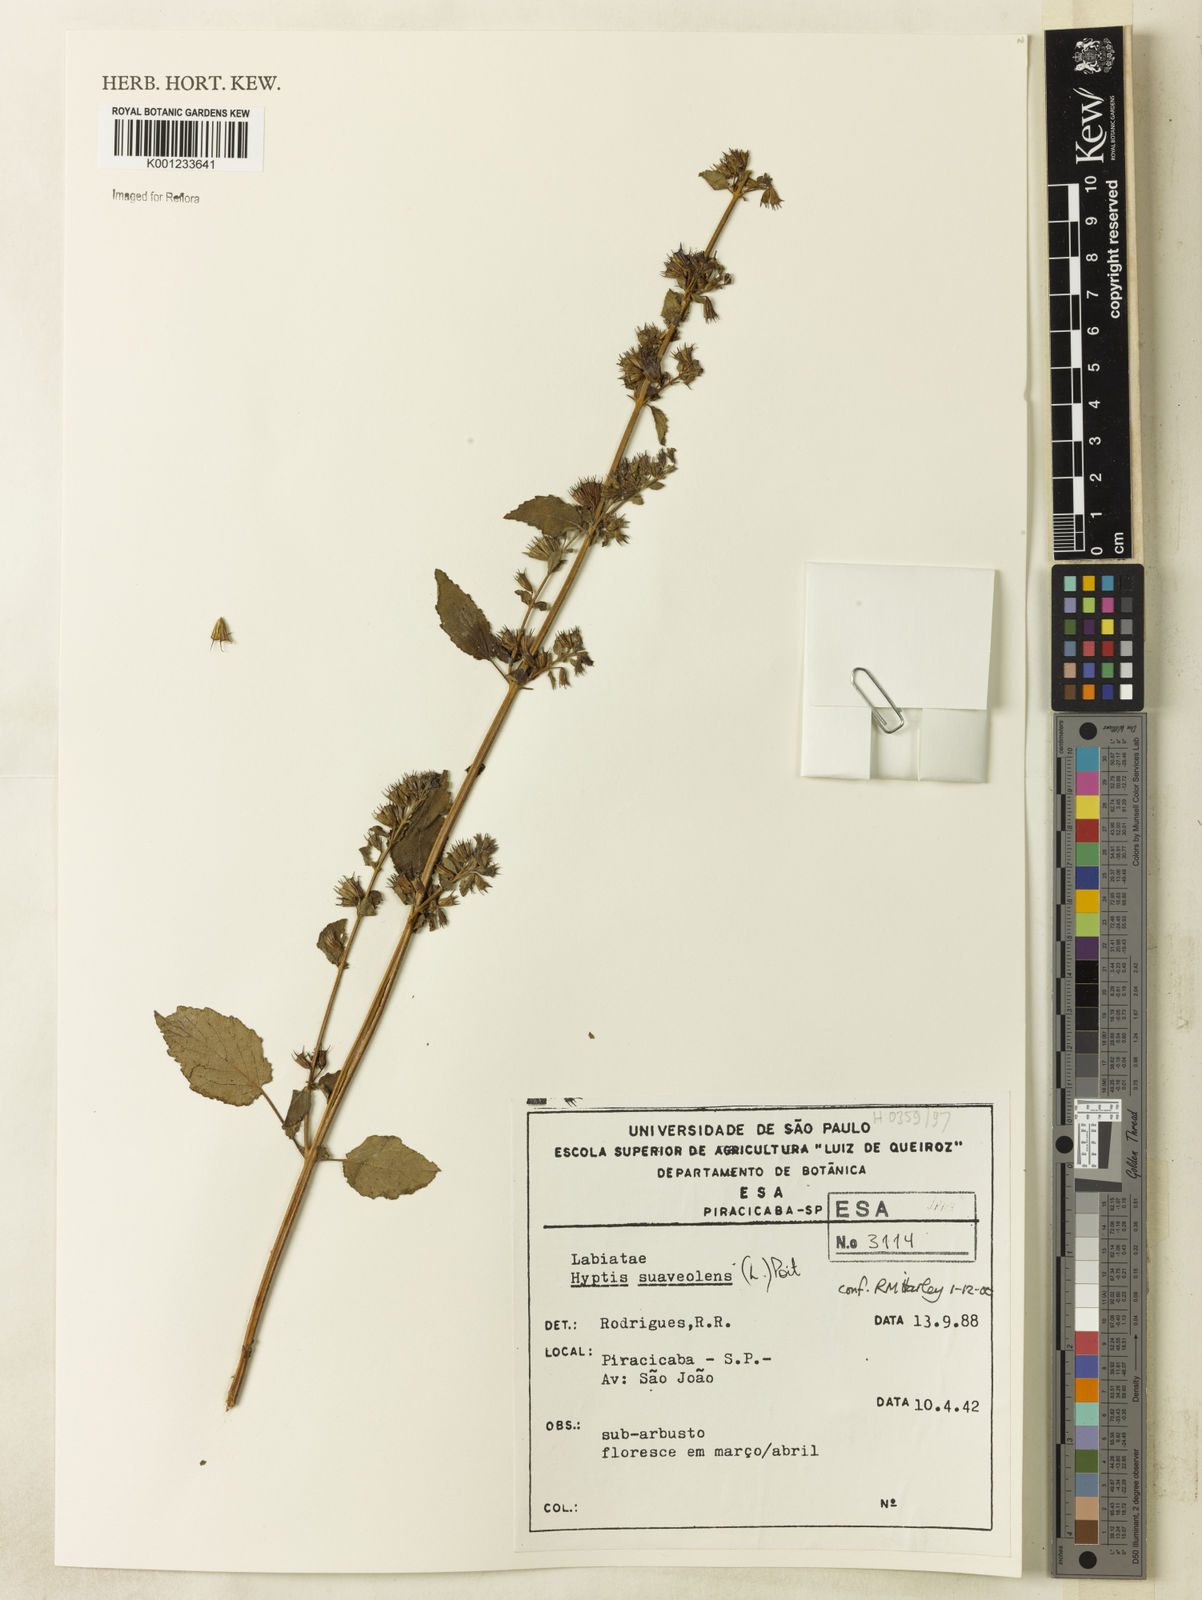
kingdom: Plantae
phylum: Tracheophyta
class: Magnoliopsida
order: Lamiales
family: Lamiaceae
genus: Mesosphaerum
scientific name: Mesosphaerum suaveolens
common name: Pignut
